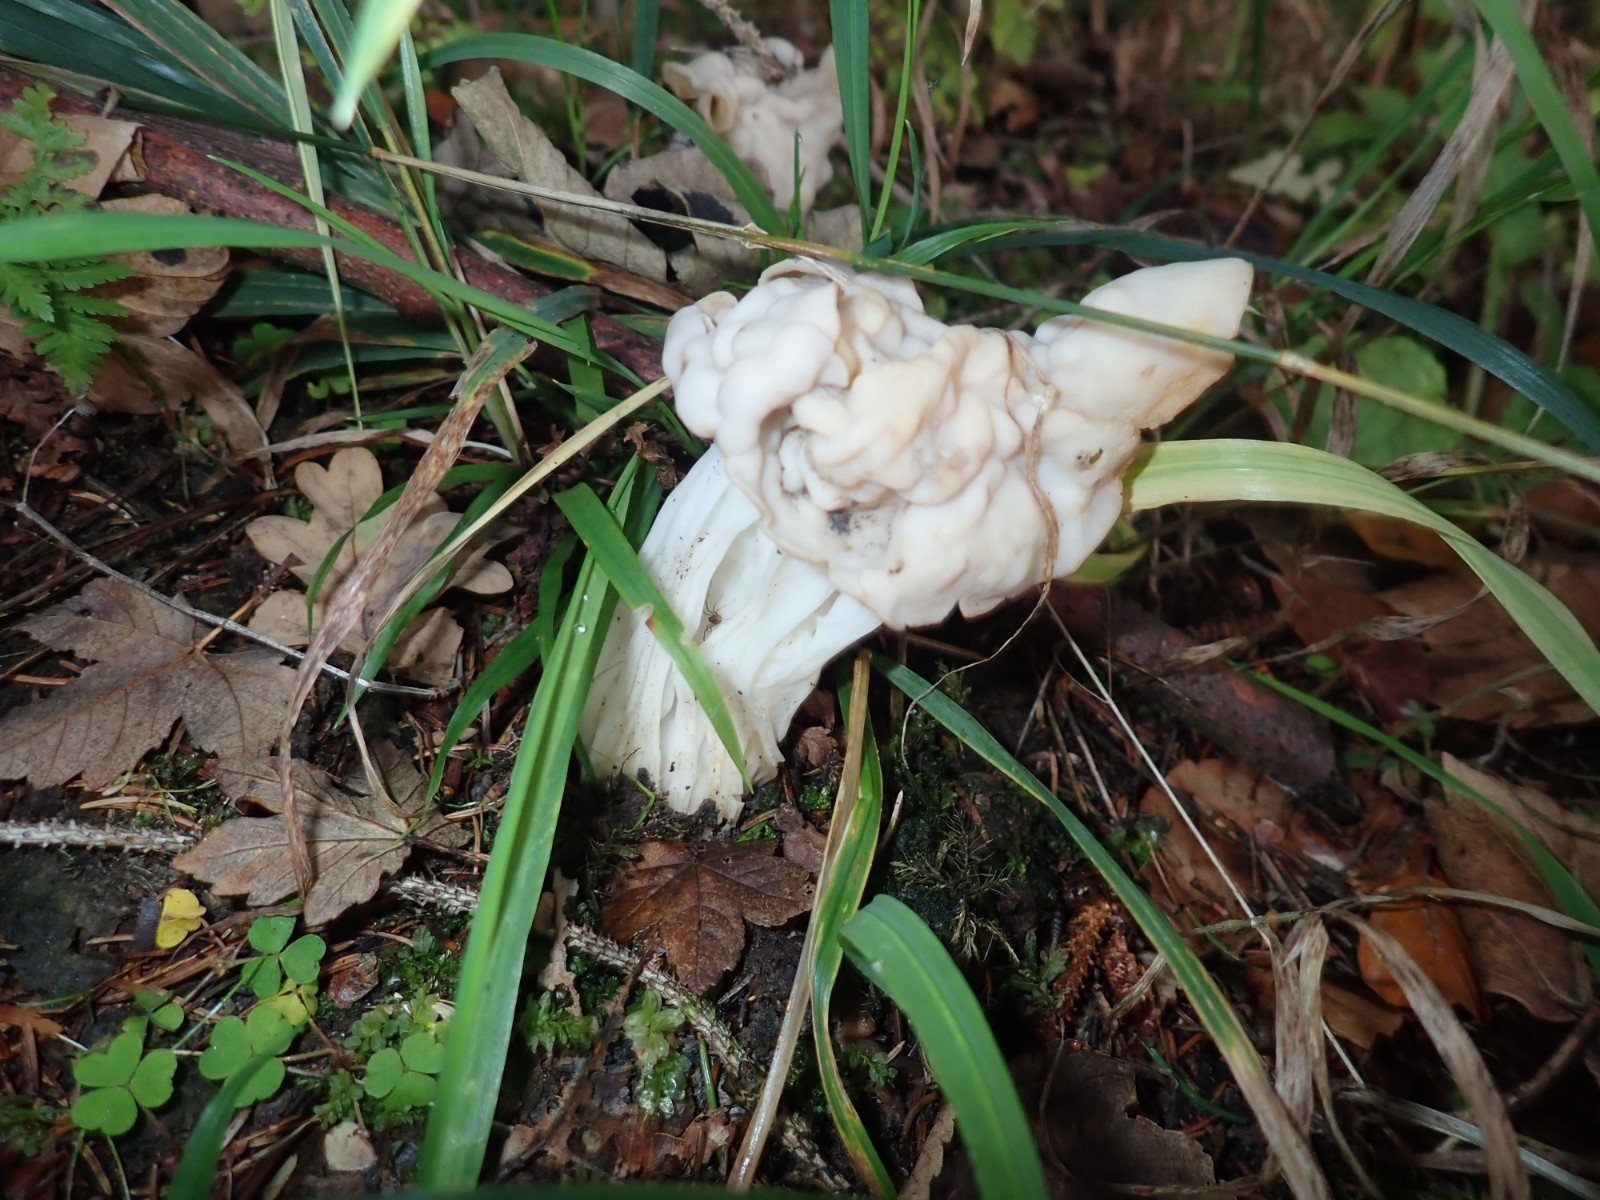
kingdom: Fungi
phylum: Ascomycota
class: Pezizomycetes
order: Pezizales
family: Helvellaceae
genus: Helvella
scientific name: Helvella crispa
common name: kruset foldhat
